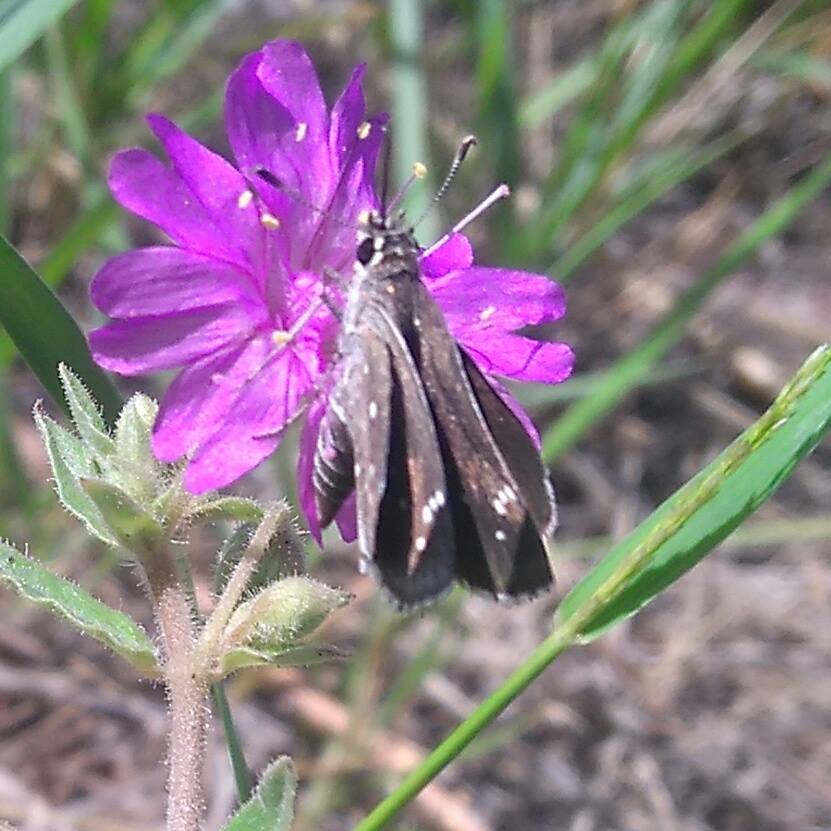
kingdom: Animalia
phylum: Arthropoda
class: Insecta
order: Lepidoptera
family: Hesperiidae
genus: Mastor
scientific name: Mastor eos
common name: Dotted Roadside-Skipper
